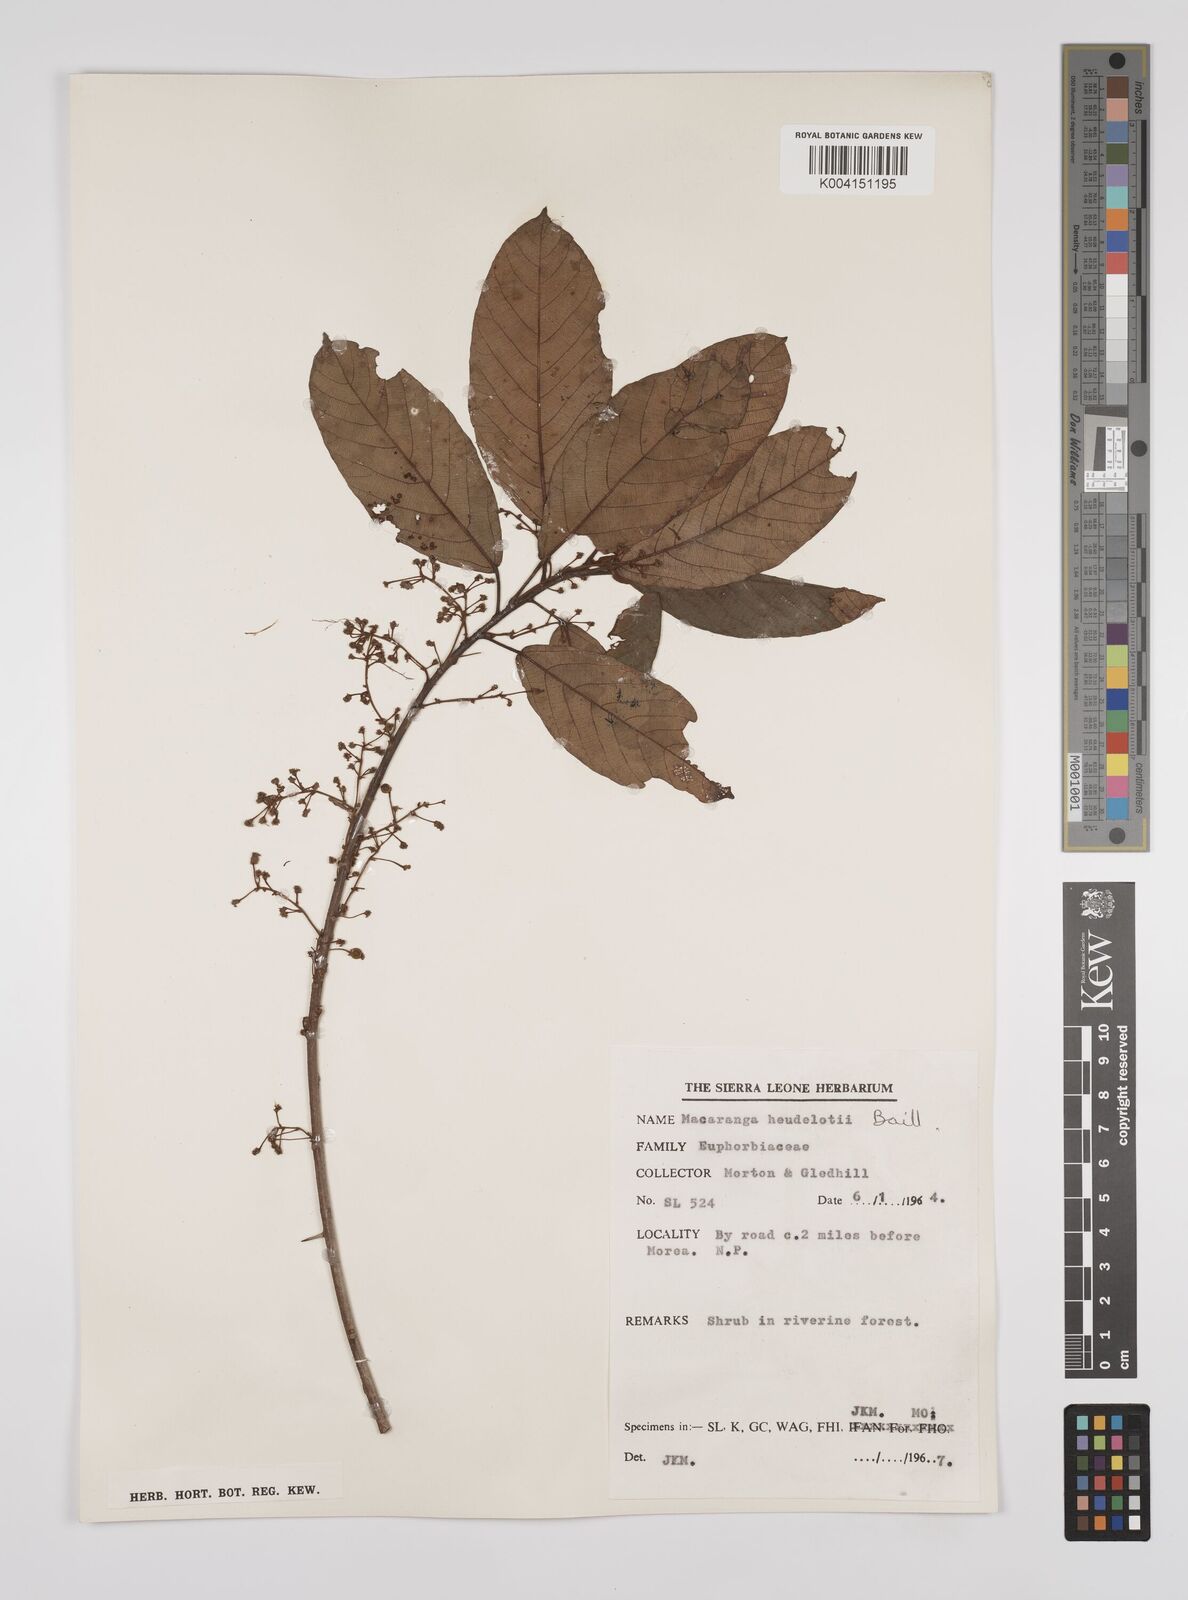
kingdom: Plantae
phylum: Tracheophyta
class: Magnoliopsida
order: Malpighiales
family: Euphorbiaceae
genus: Macaranga
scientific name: Macaranga heudelotii
